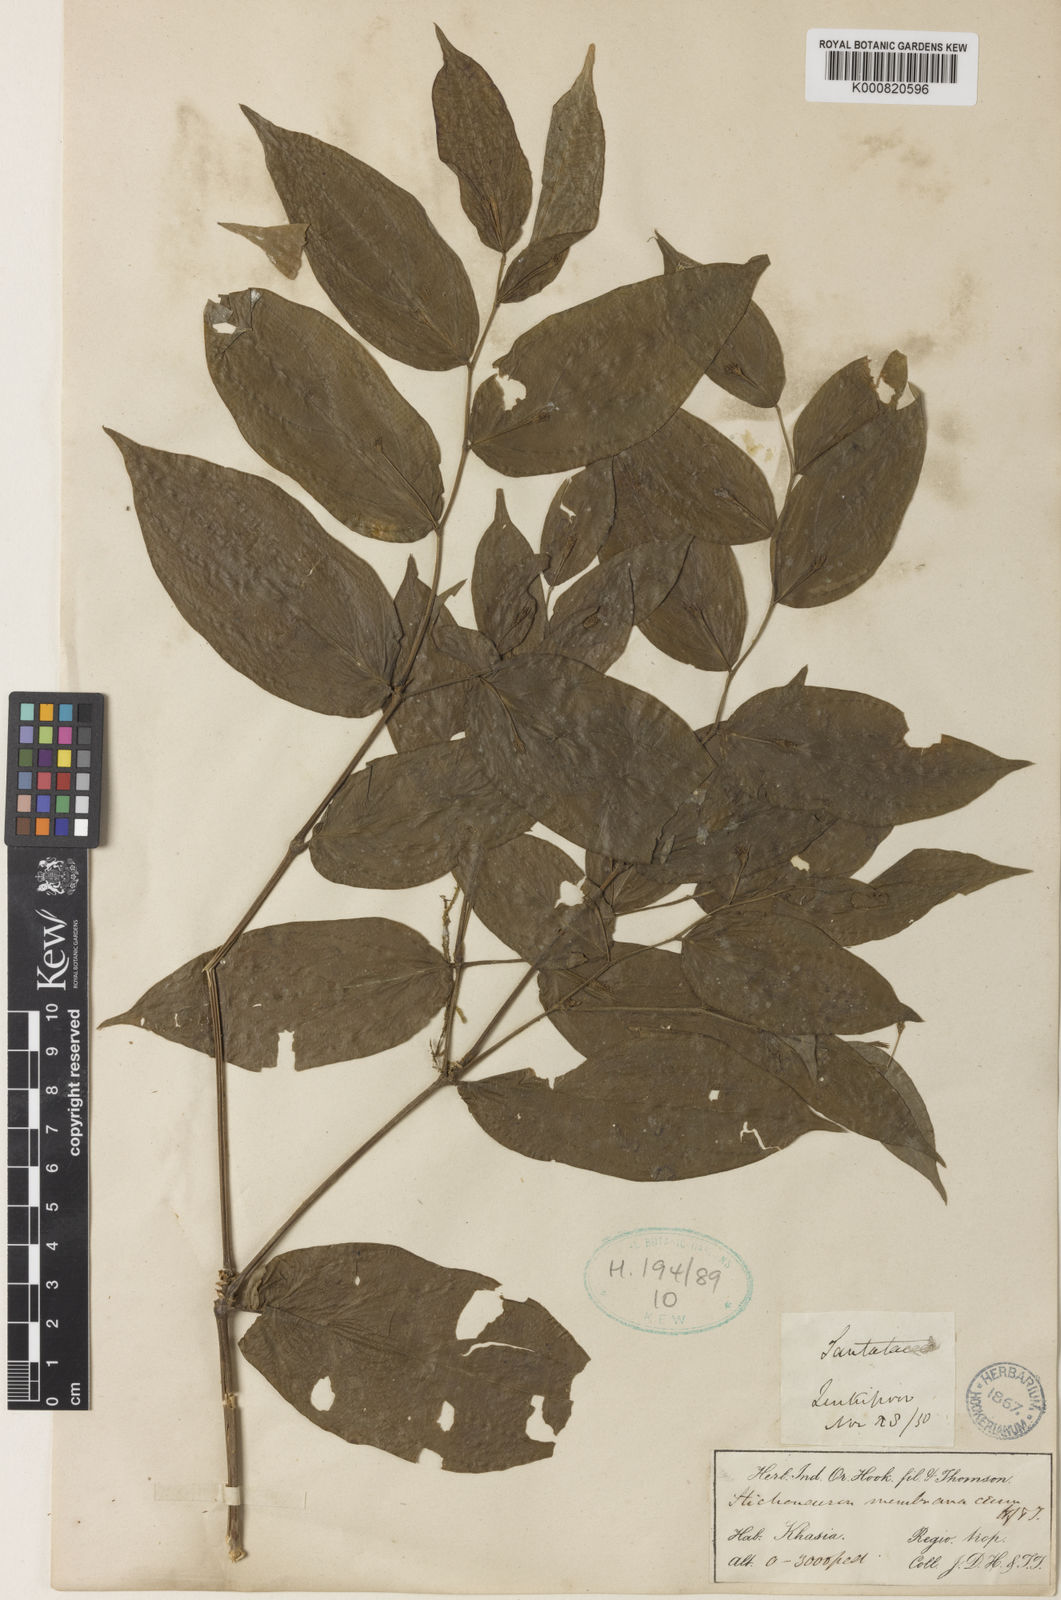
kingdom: Plantae
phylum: Tracheophyta
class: Liliopsida
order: Pandanales
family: Stemonaceae
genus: Stichoneuron
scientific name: Stichoneuron membranaceum
